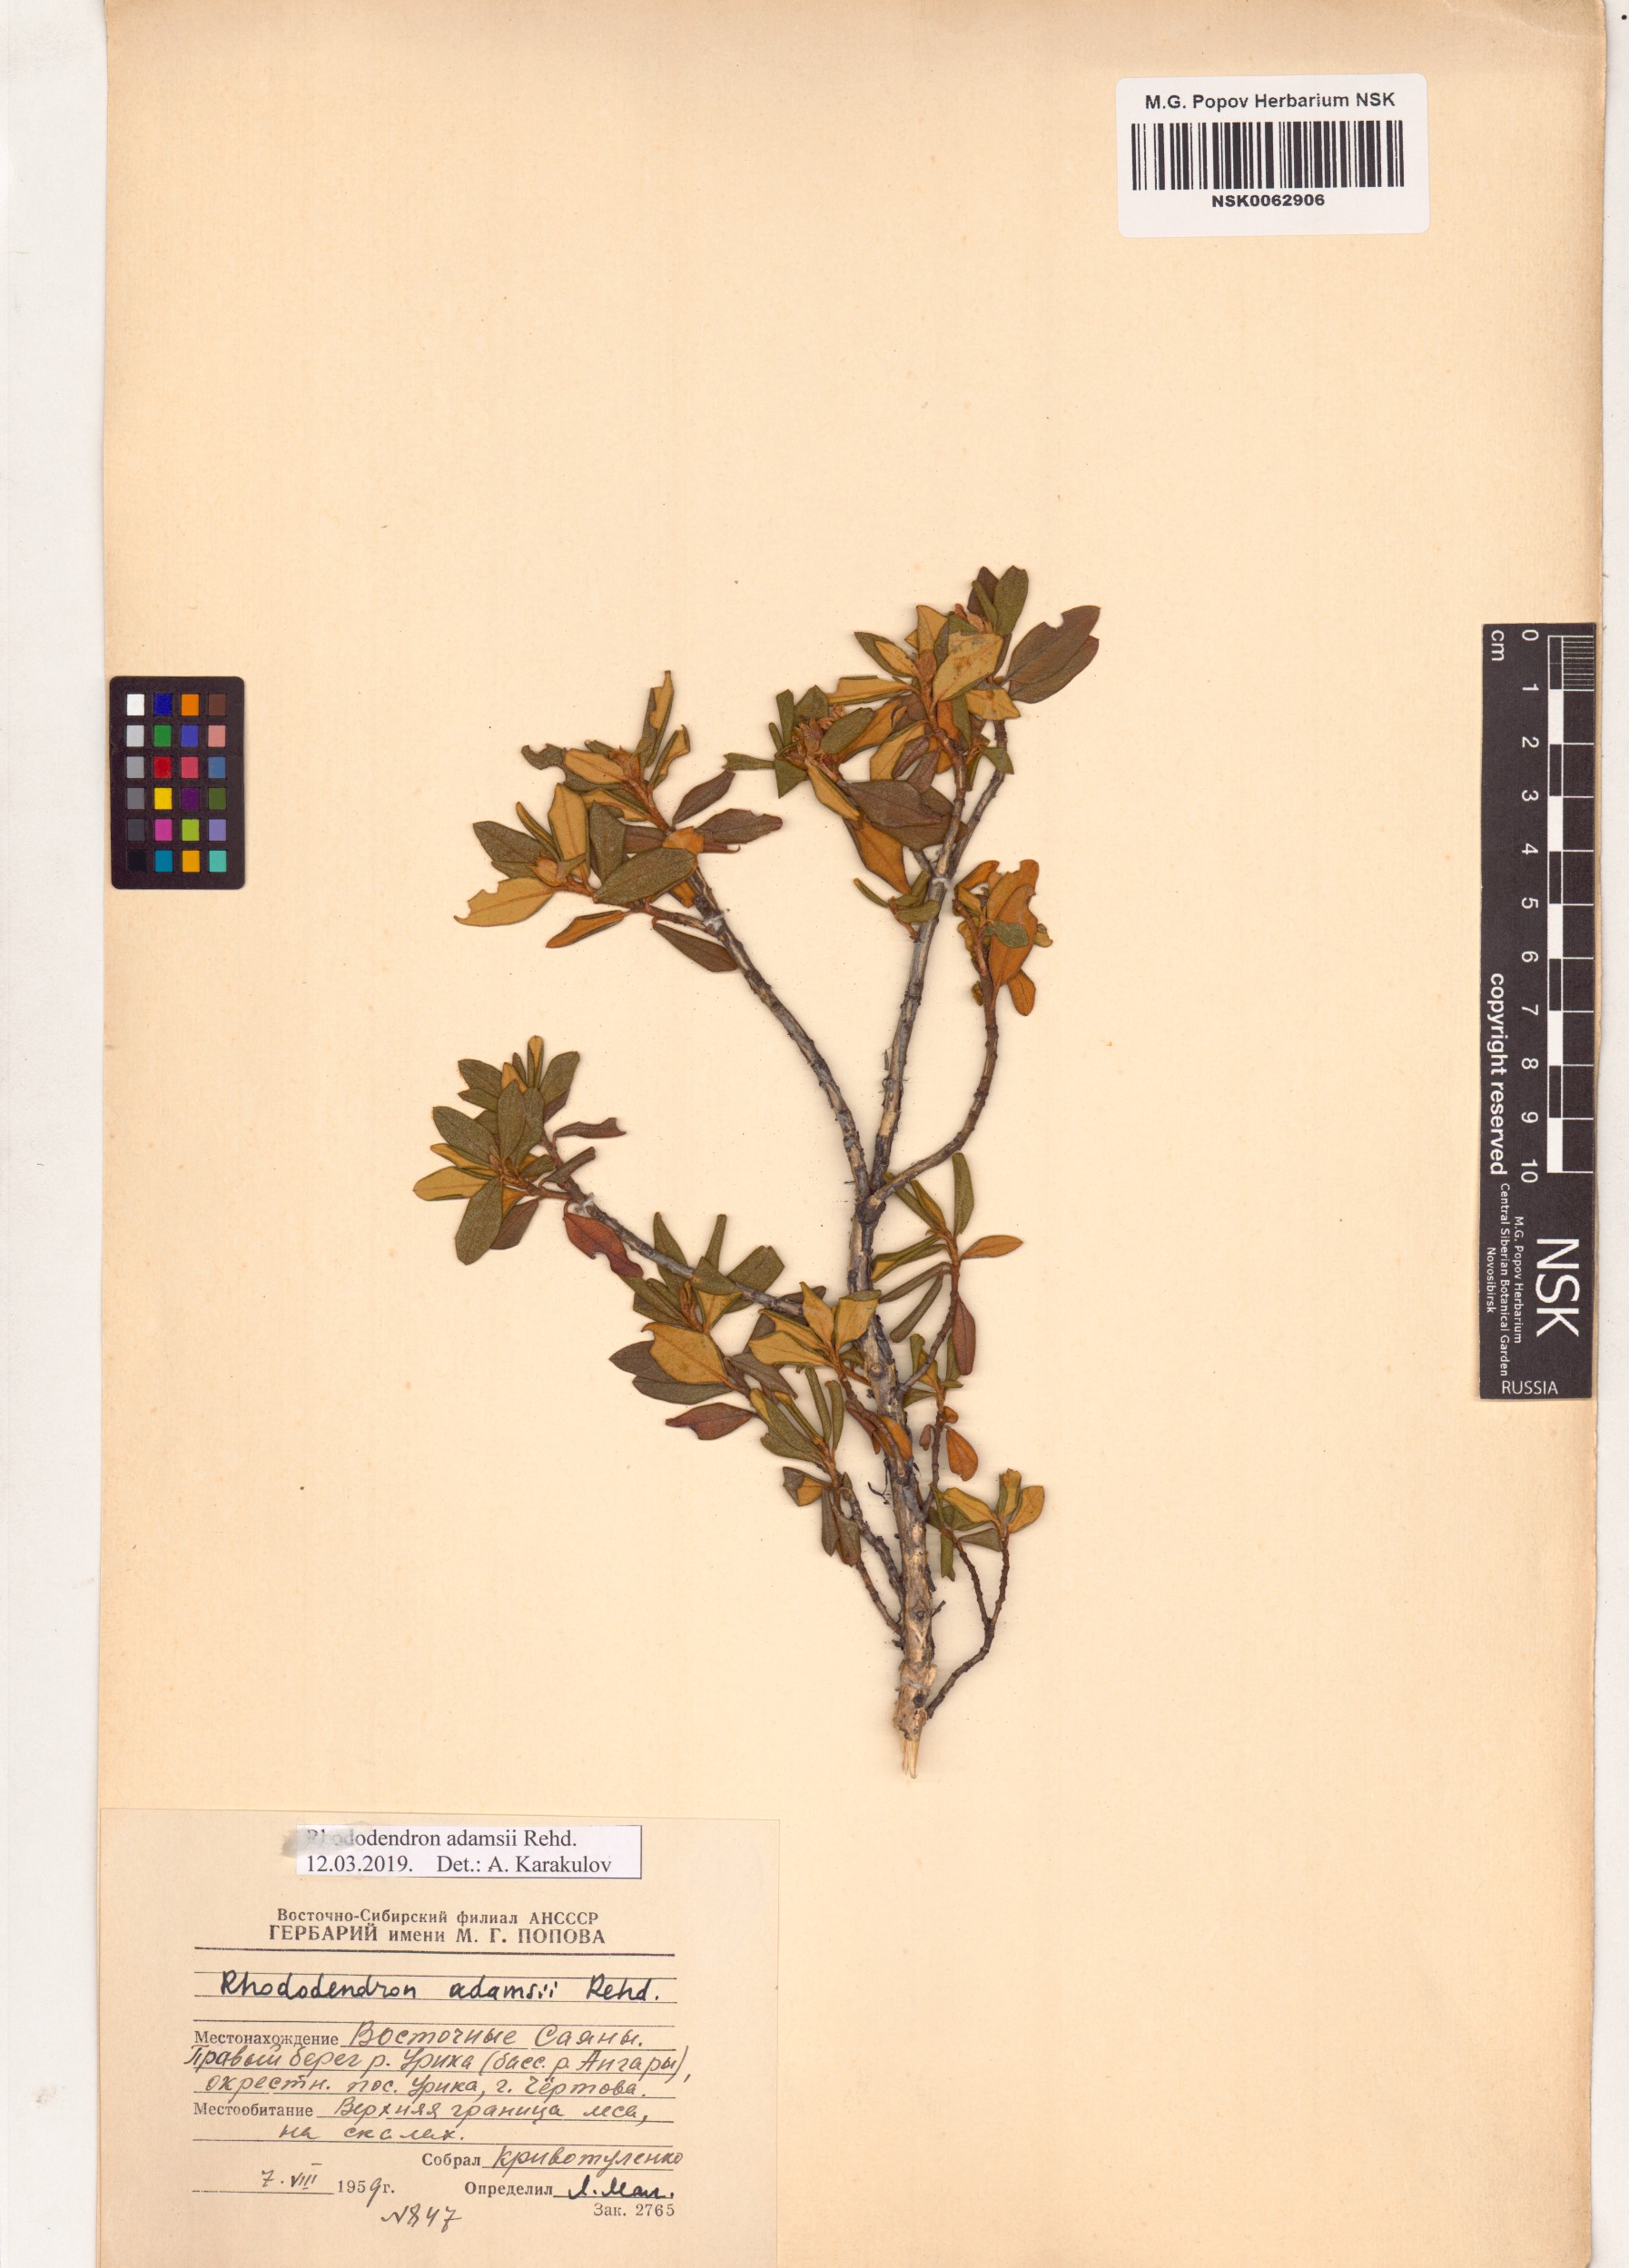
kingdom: Plantae
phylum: Tracheophyta
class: Magnoliopsida
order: Ericales
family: Ericaceae
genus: Rhododendron
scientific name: Rhododendron adamsii
